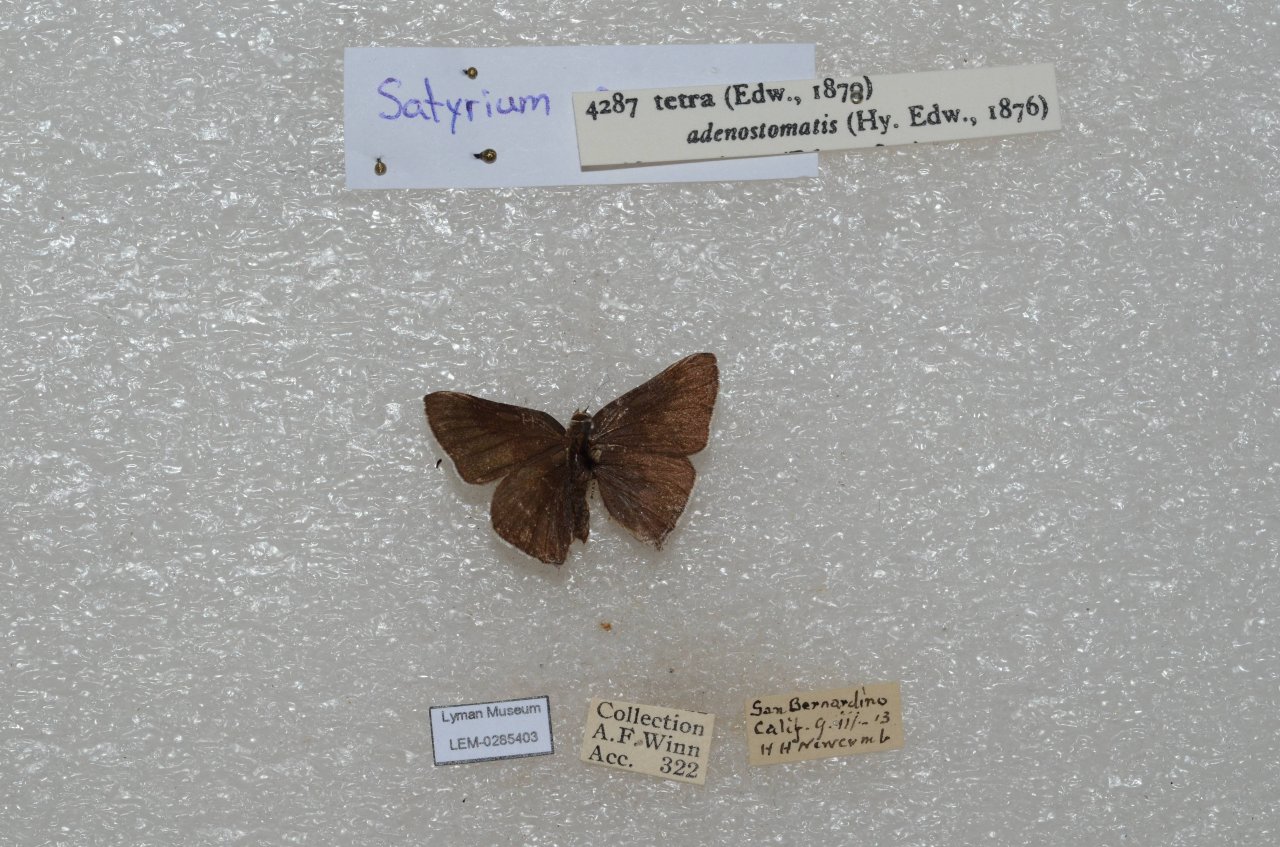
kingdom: Animalia
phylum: Arthropoda
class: Insecta
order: Lepidoptera
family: Lycaenidae
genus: Thecla
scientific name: Thecla tetra
